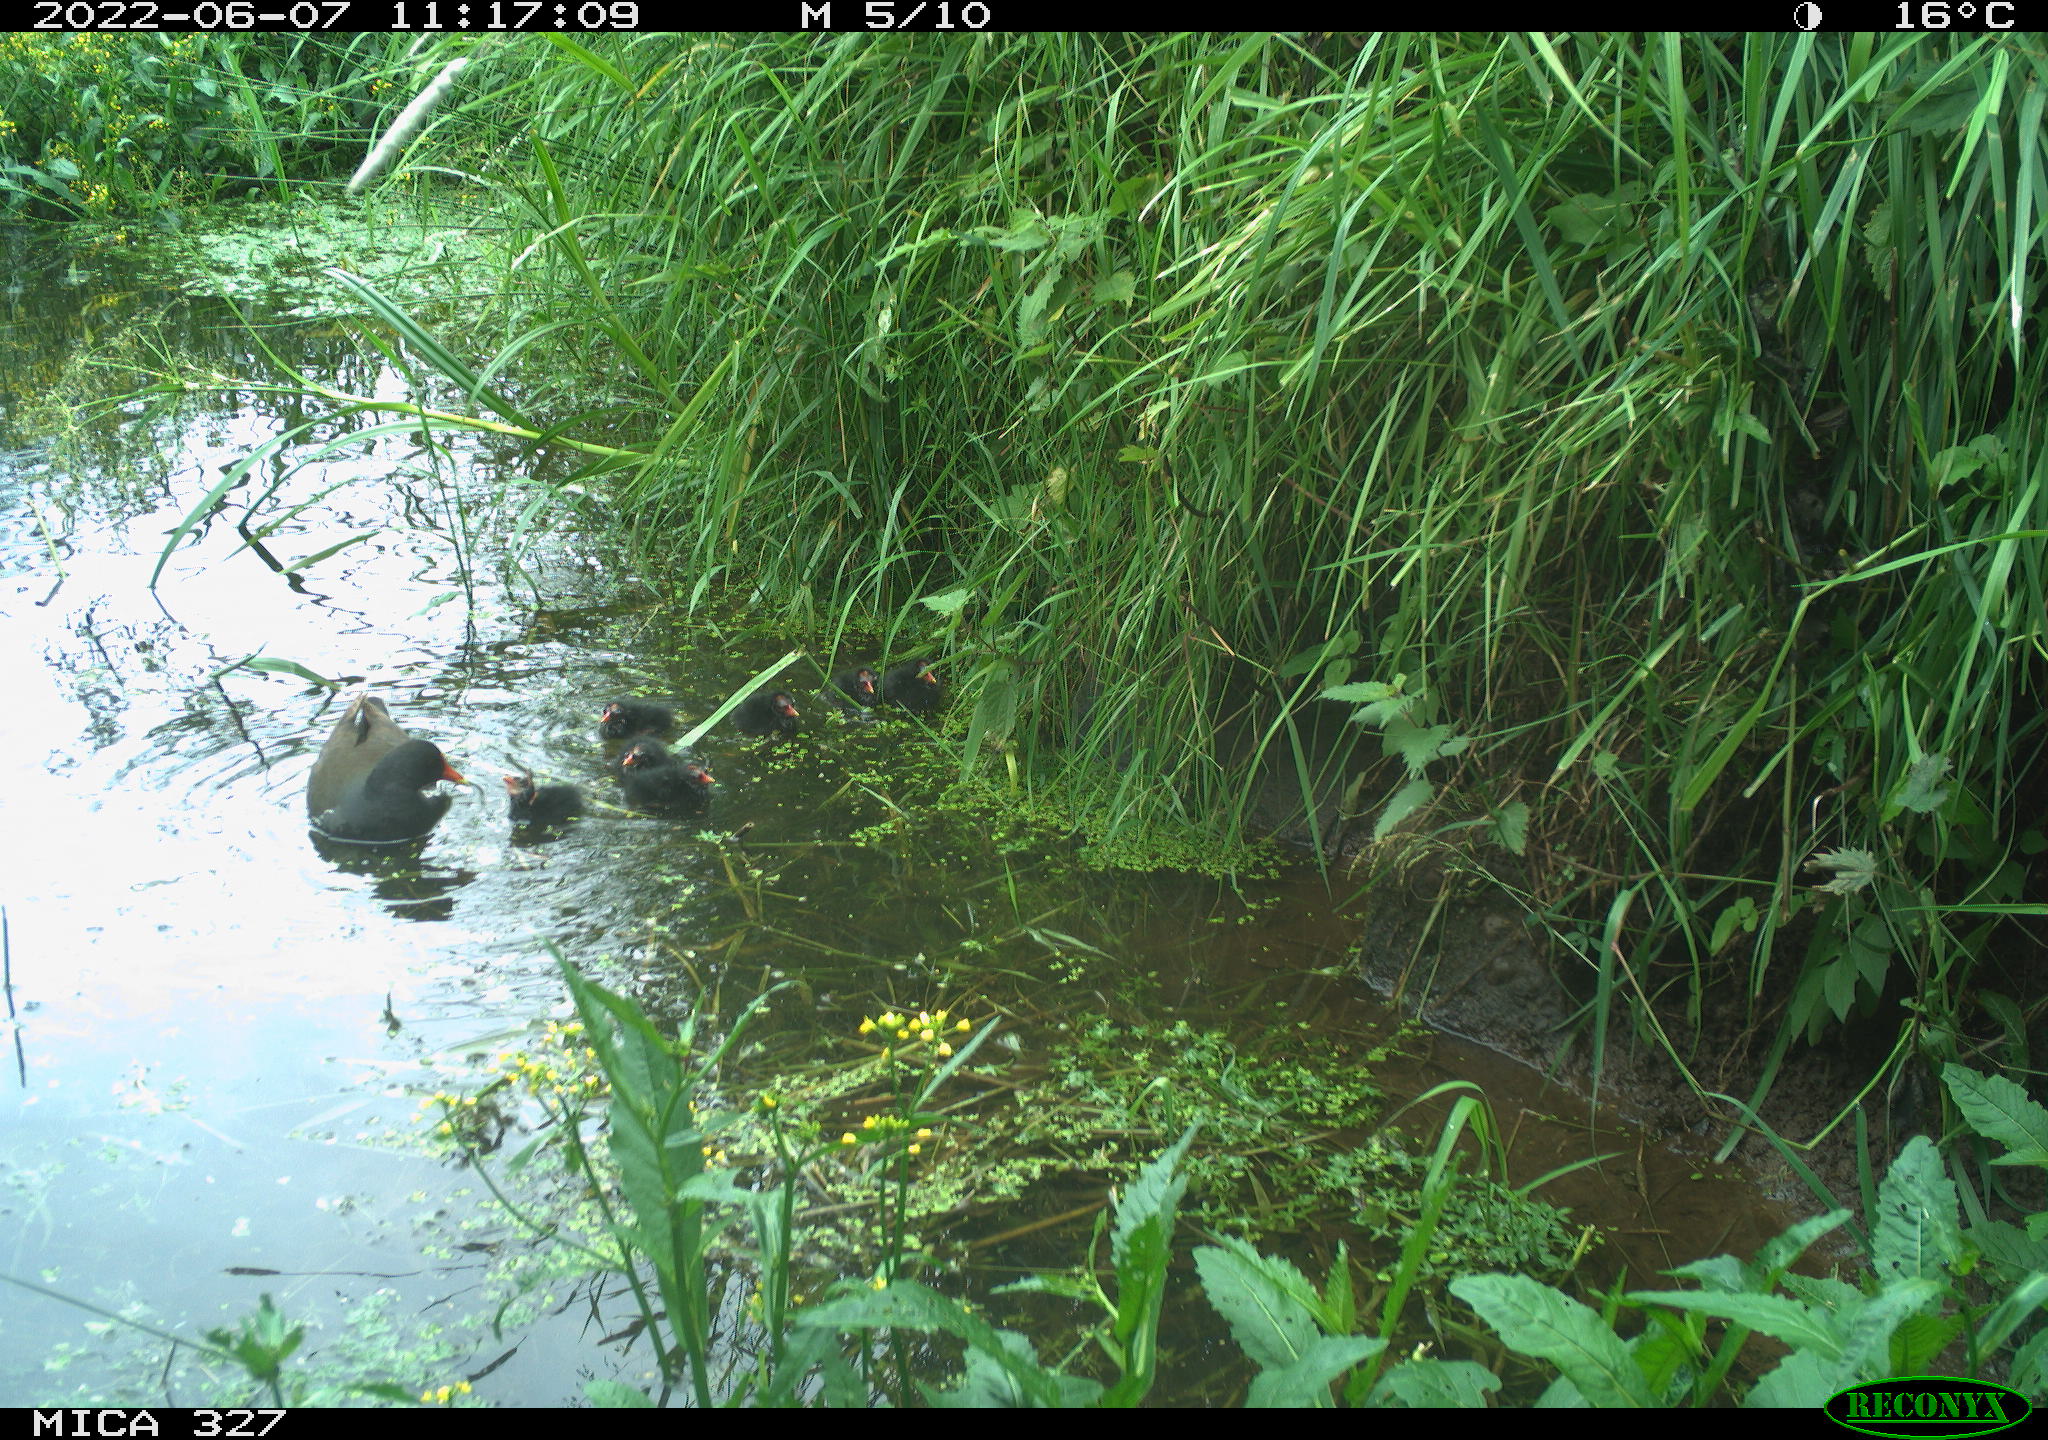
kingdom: Animalia
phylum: Chordata
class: Aves
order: Gruiformes
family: Rallidae
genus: Gallinula
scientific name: Gallinula chloropus
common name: Common moorhen
